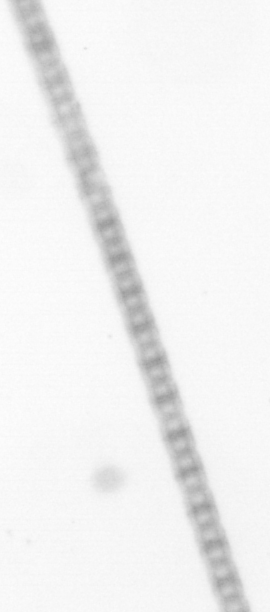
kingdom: Chromista
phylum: Ochrophyta
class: Bacillariophyceae
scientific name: Bacillariophyceae
